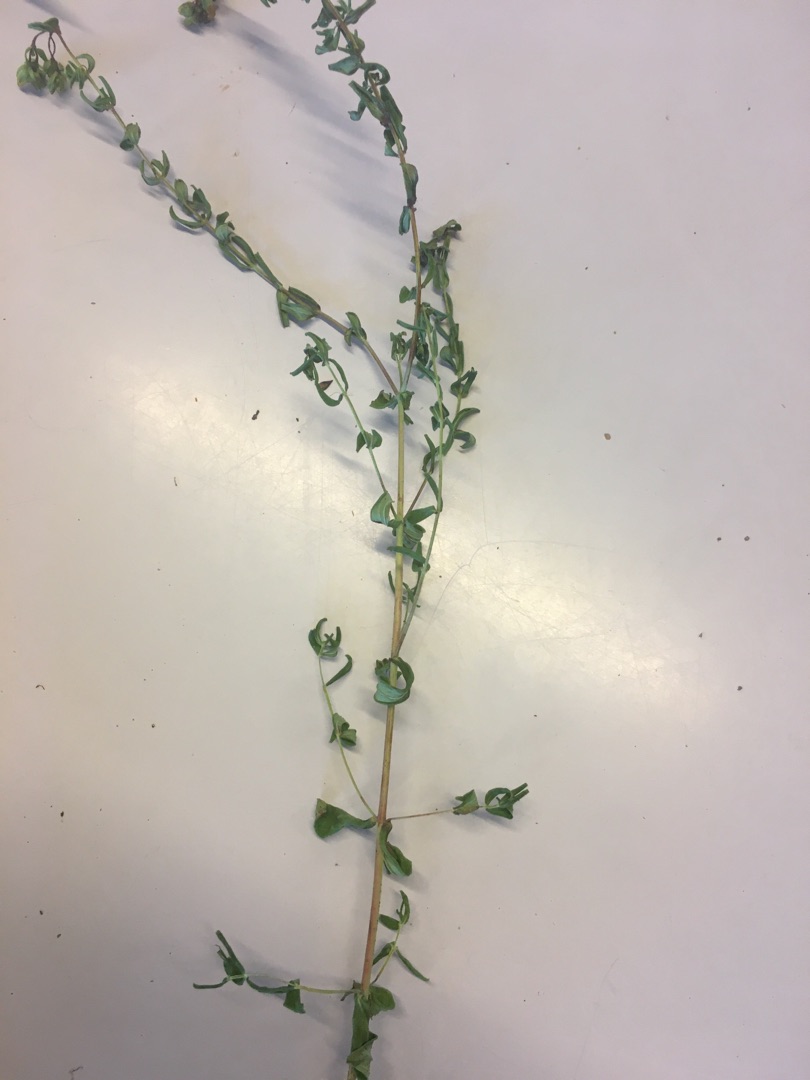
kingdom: Plantae
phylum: Tracheophyta
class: Magnoliopsida
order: Malpighiales
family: Hypericaceae
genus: Hypericum
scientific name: Hypericum perforatum
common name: Prikbladet perikon
